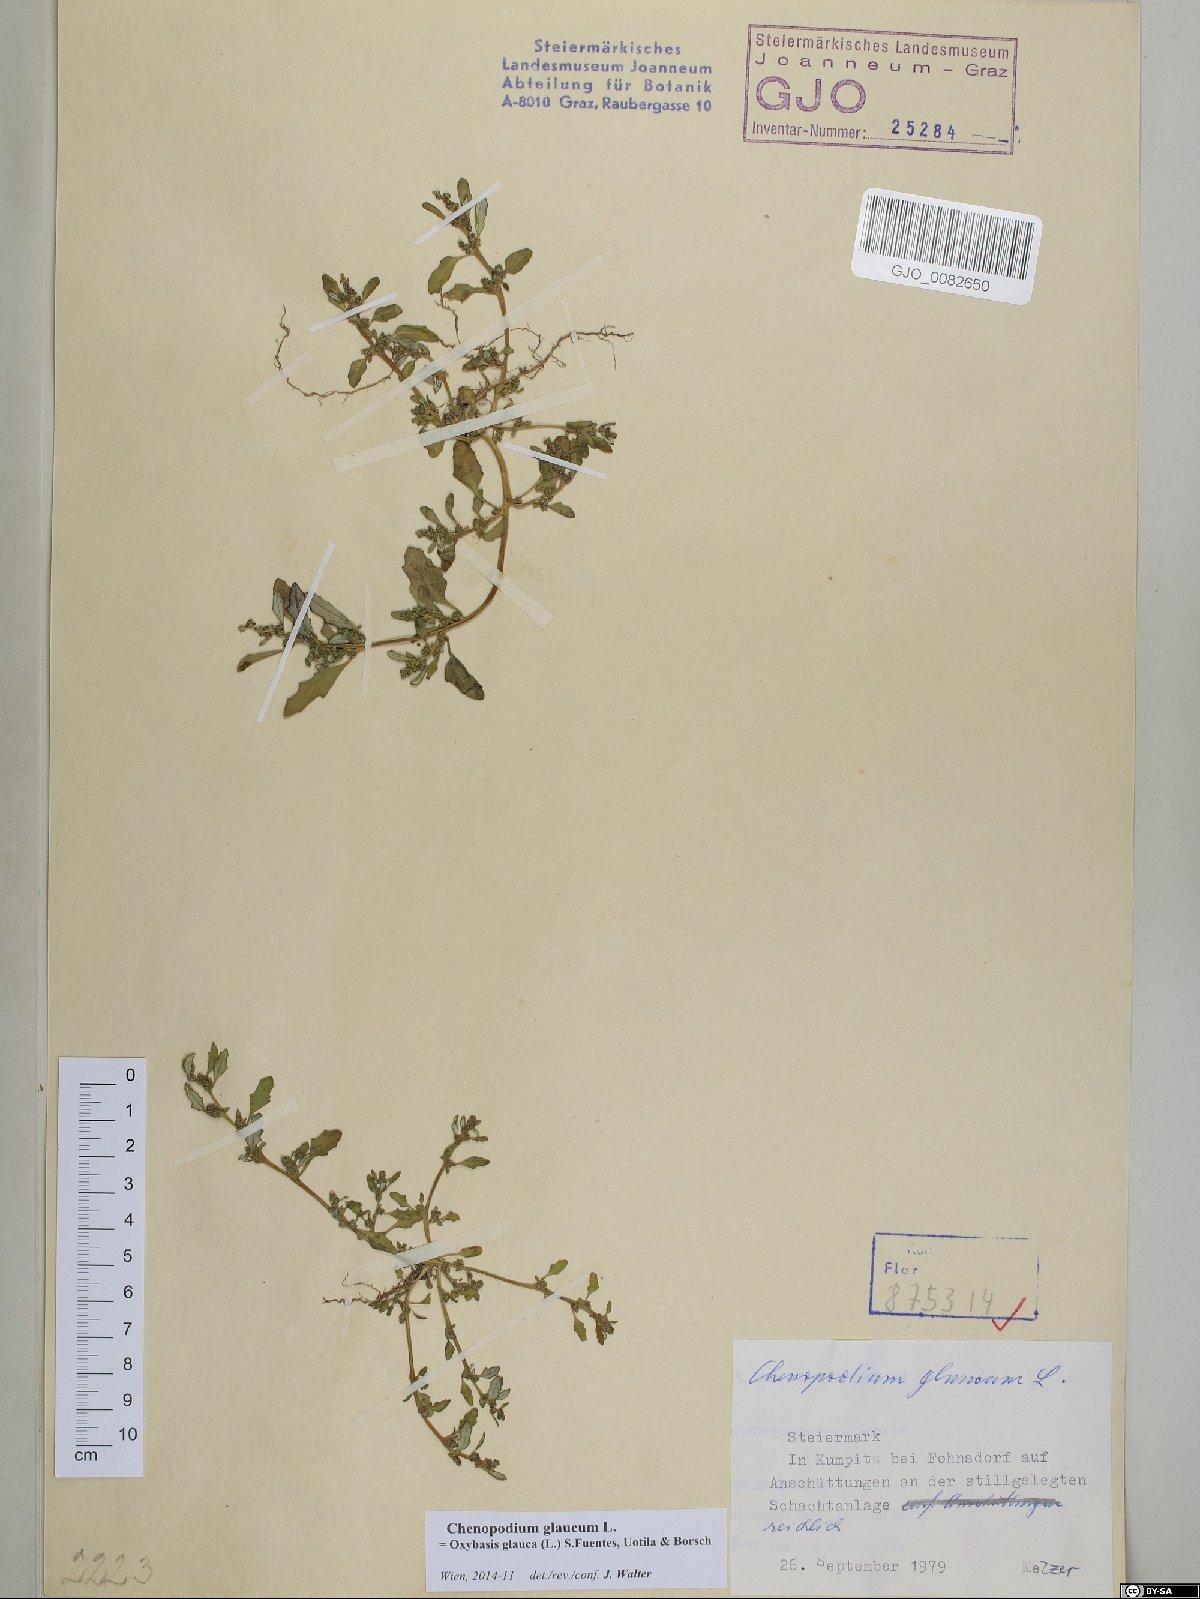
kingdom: Plantae
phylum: Tracheophyta
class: Magnoliopsida
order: Caryophyllales
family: Amaranthaceae
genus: Oxybasis
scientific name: Oxybasis glauca
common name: Glaucous goosefoot
